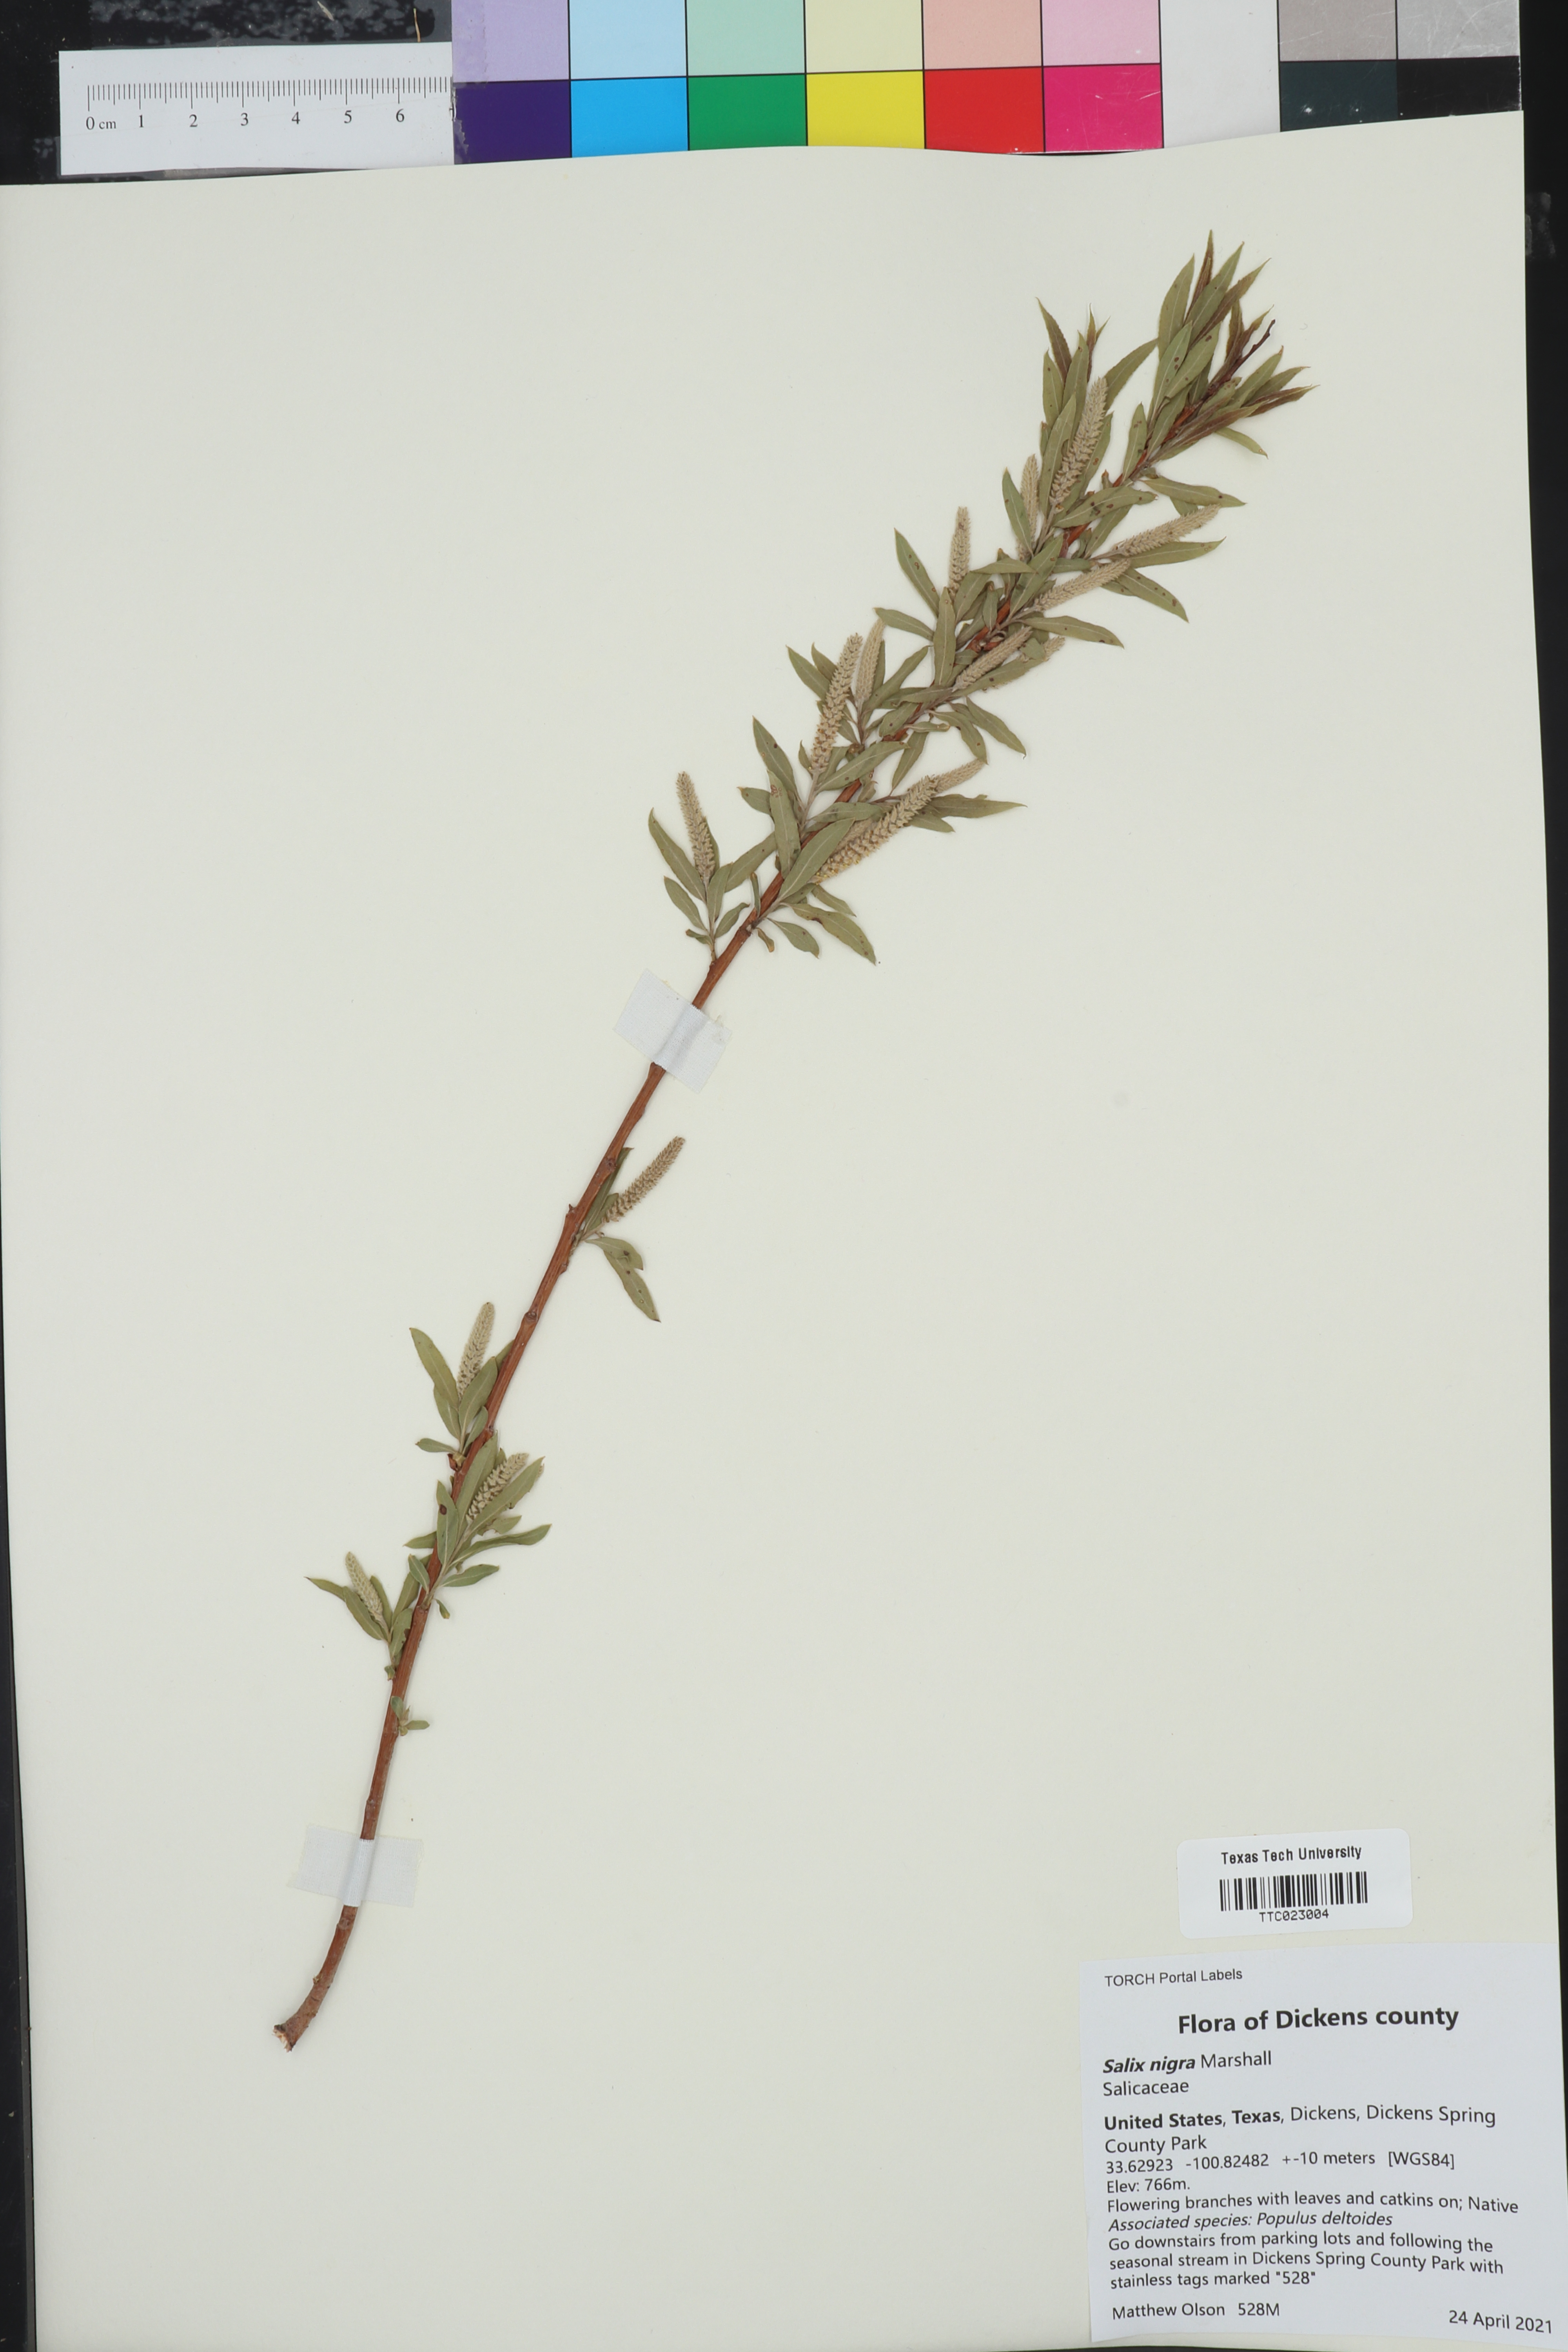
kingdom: Plantae
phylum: Tracheophyta
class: Magnoliopsida
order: Malpighiales
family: Salicaceae
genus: Salix
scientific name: Salix nigra
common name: Black willow
